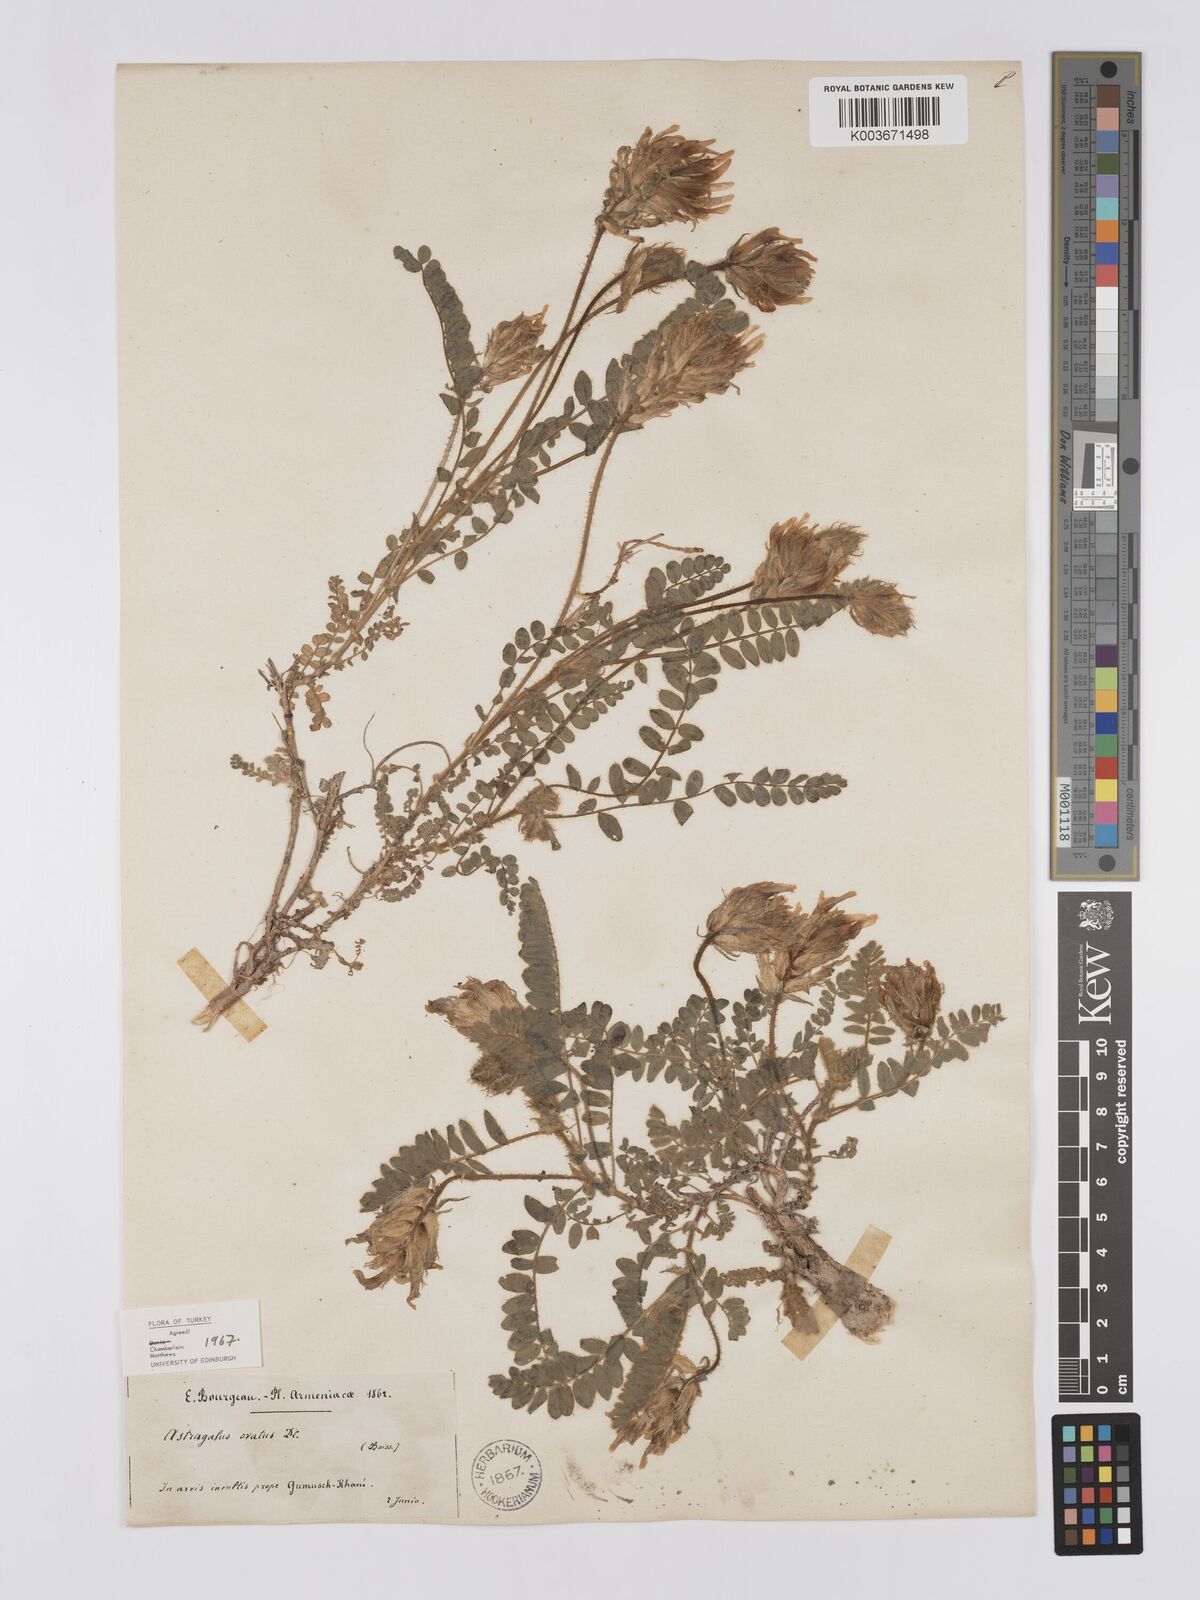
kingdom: Plantae
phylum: Tracheophyta
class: Magnoliopsida
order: Fabales
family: Fabaceae
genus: Astragalus
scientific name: Astragalus ovatus
